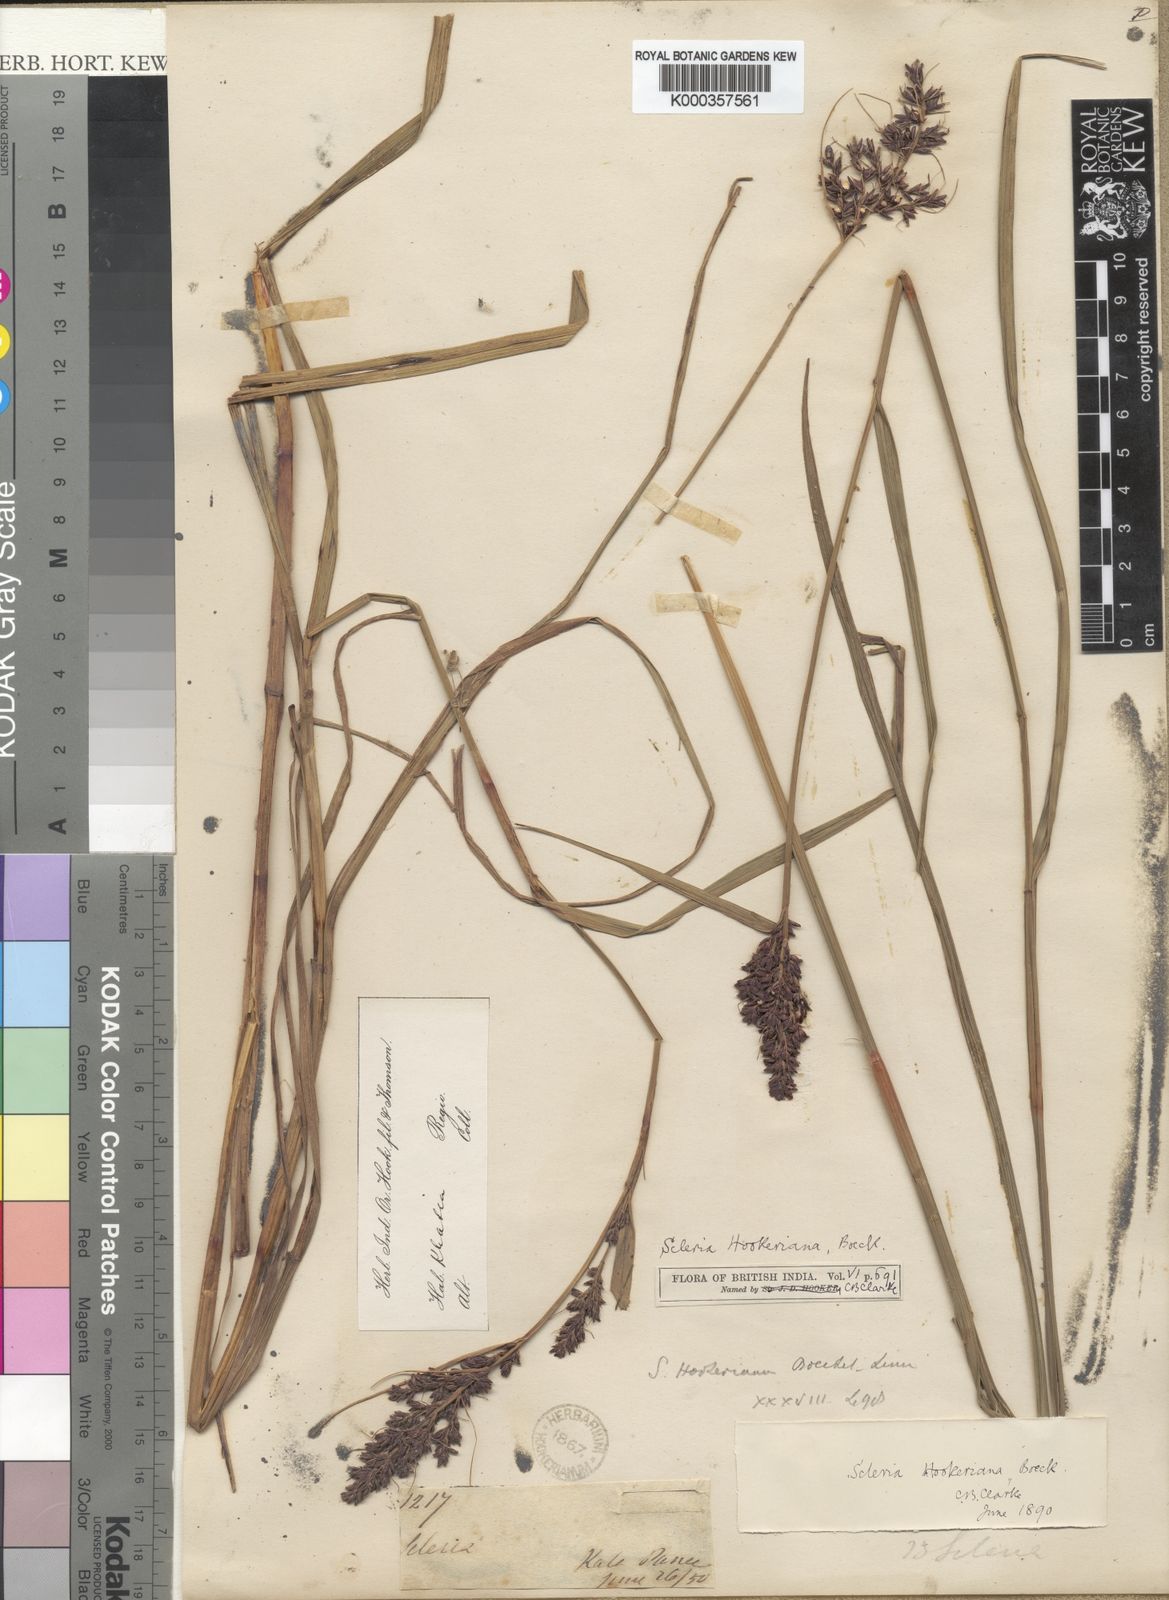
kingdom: Plantae
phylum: Tracheophyta
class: Liliopsida
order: Poales
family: Cyperaceae
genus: Scleria
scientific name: Scleria terrestris
